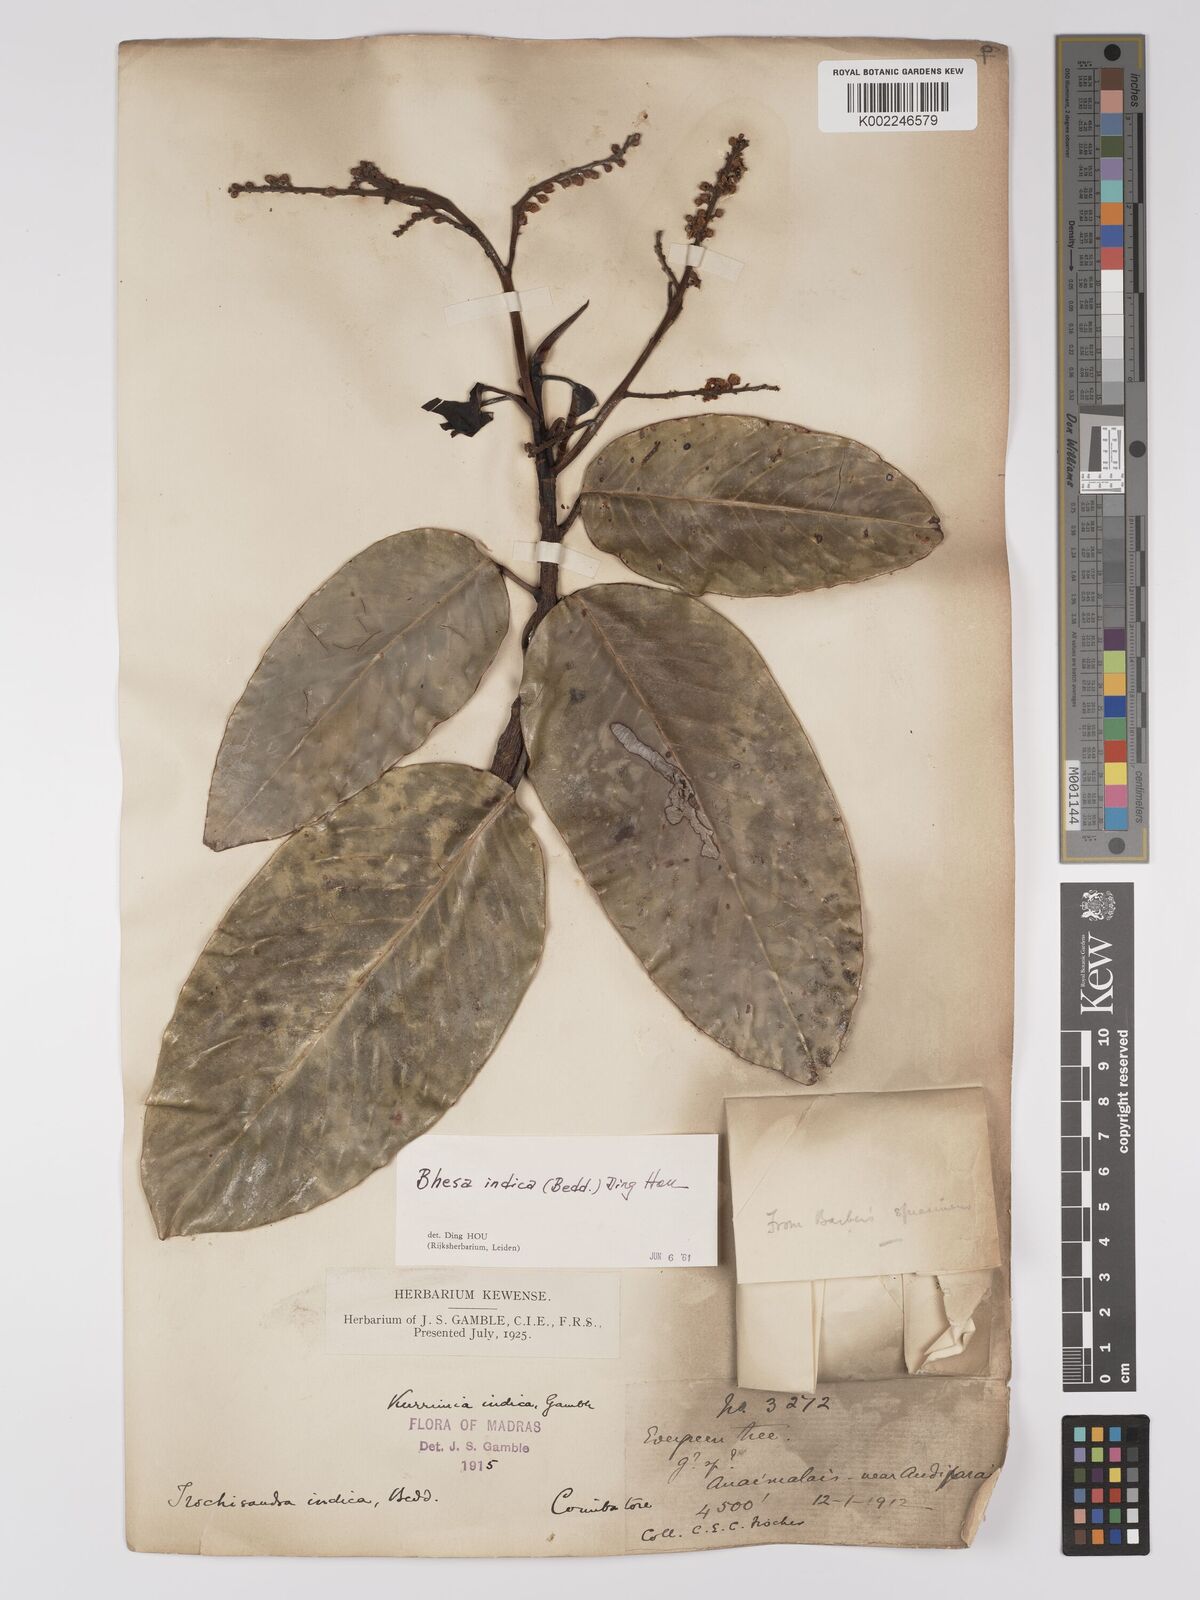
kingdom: Plantae
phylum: Tracheophyta
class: Magnoliopsida
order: Malpighiales
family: Centroplacaceae
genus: Bhesa
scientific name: Bhesa indica
